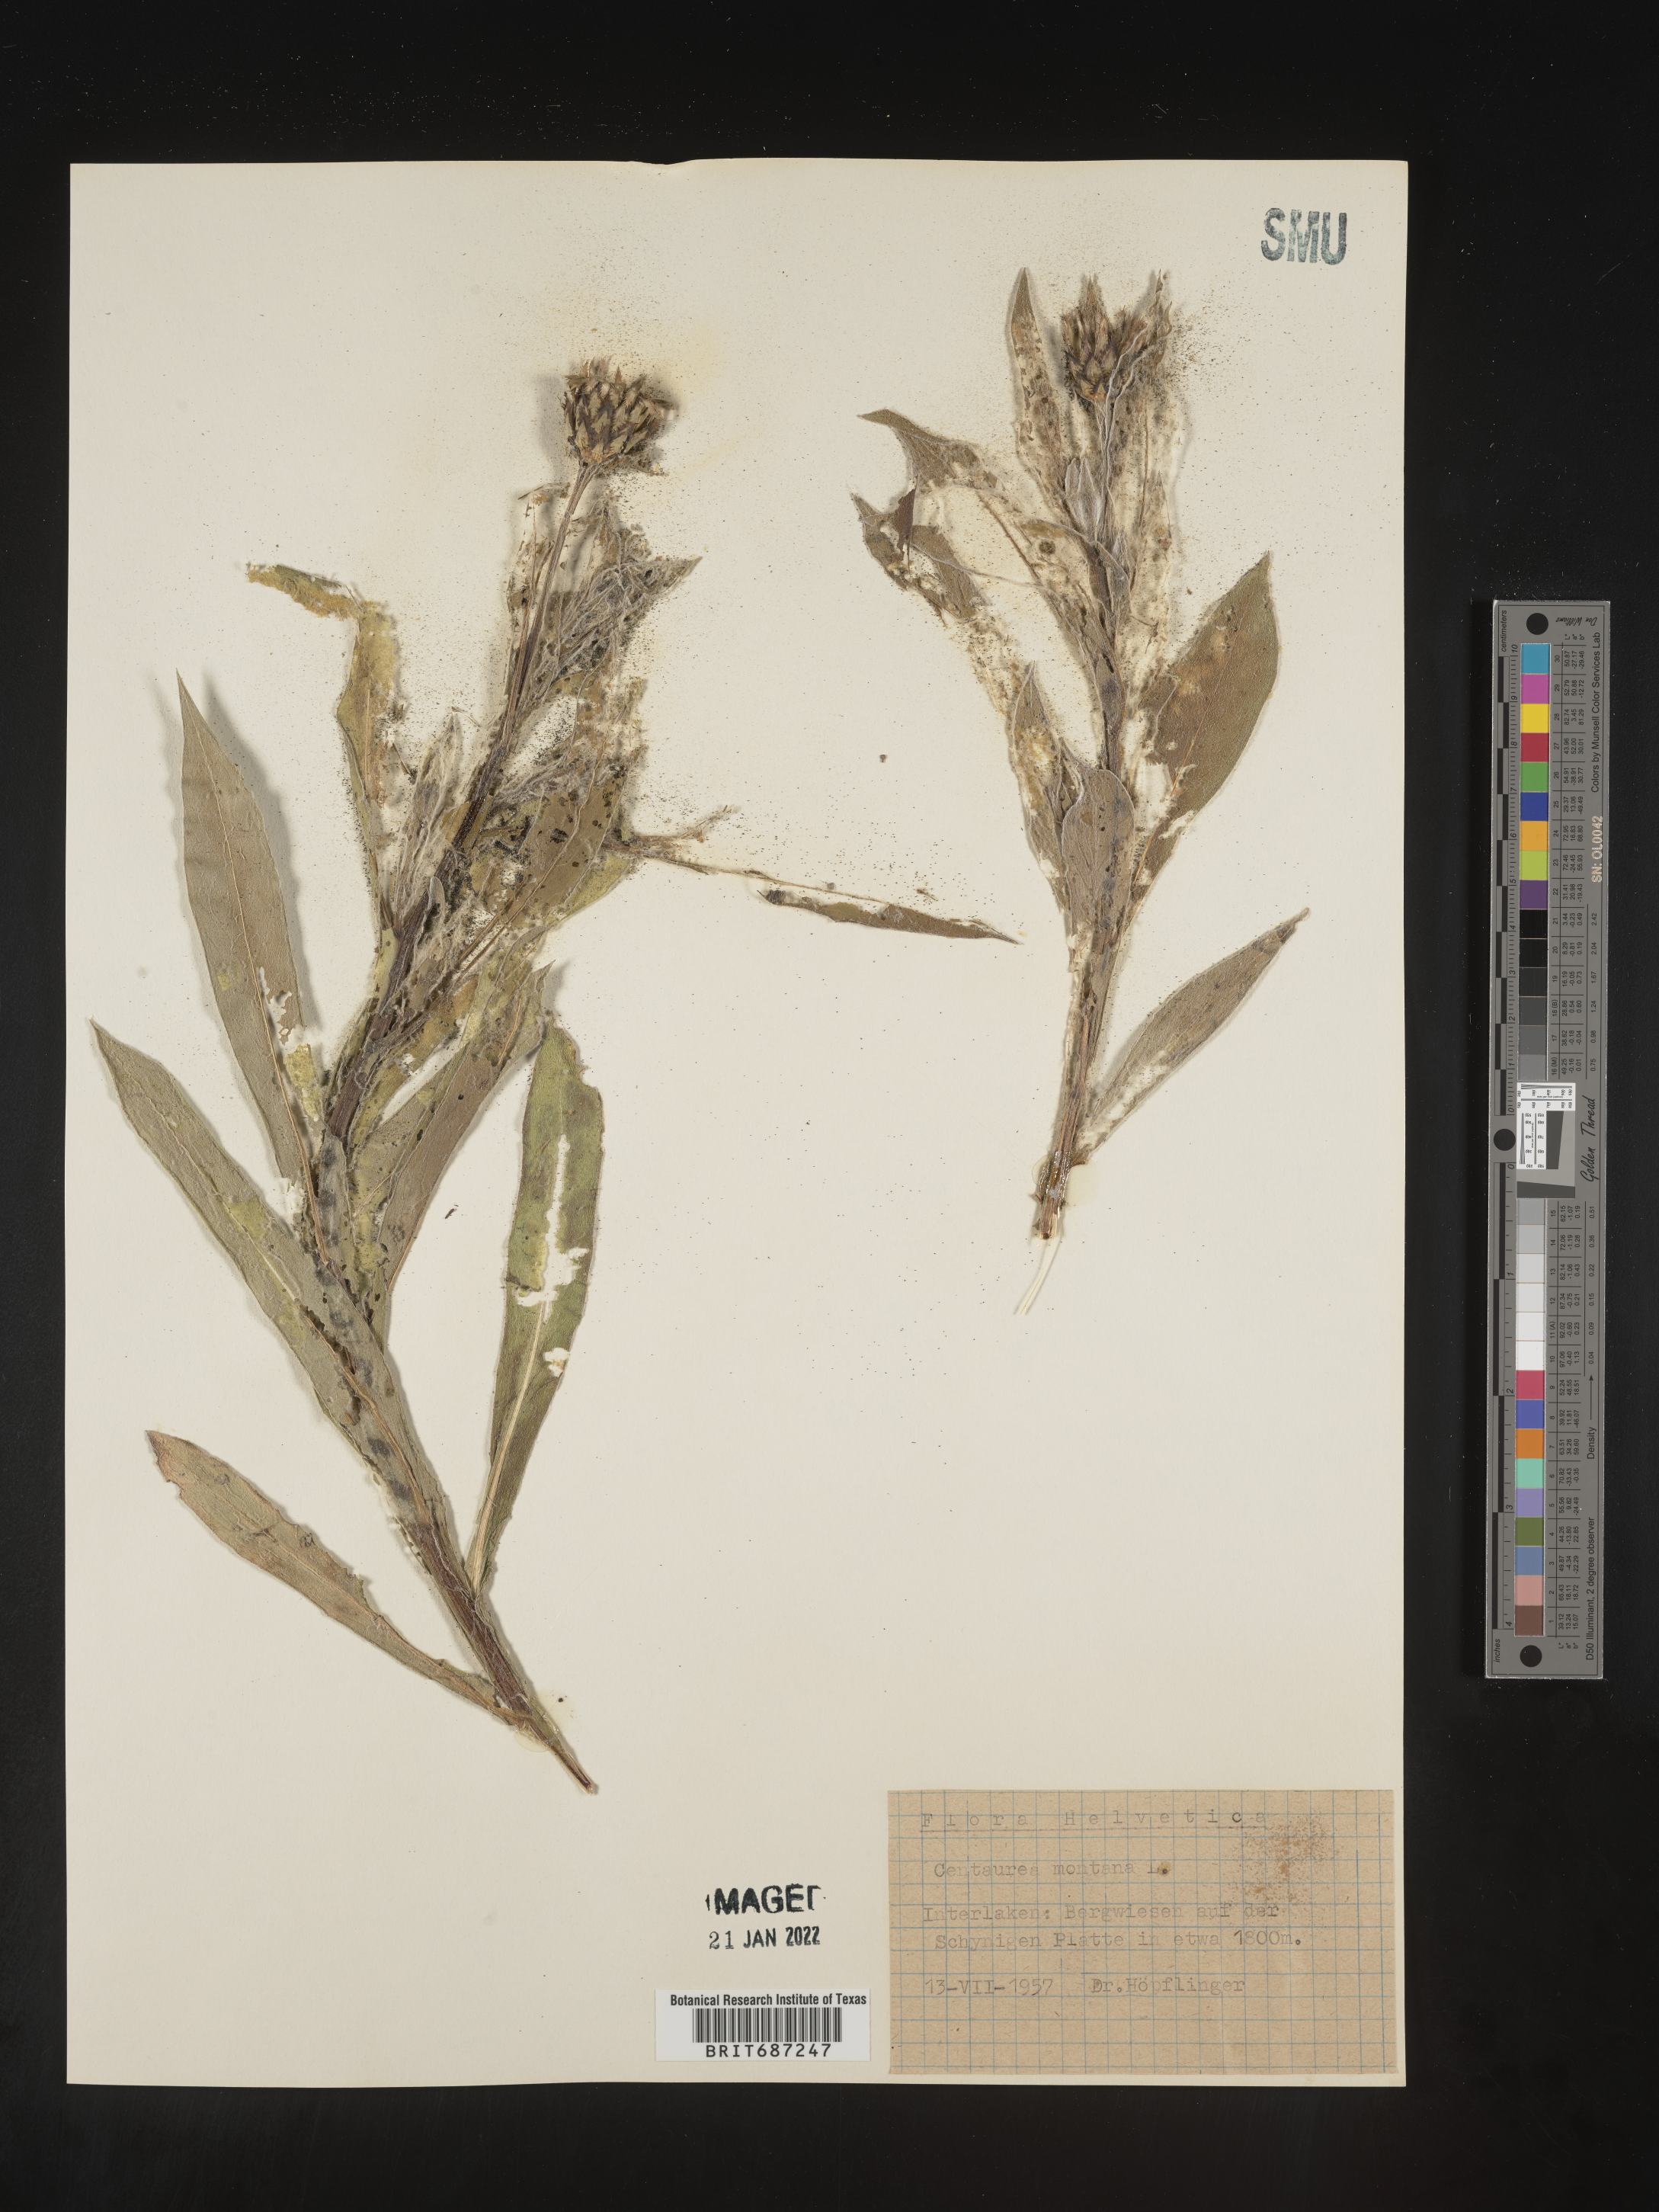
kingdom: Plantae
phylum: Tracheophyta
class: Magnoliopsida
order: Asterales
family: Asteraceae
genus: Centaurea
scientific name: Centaurea
